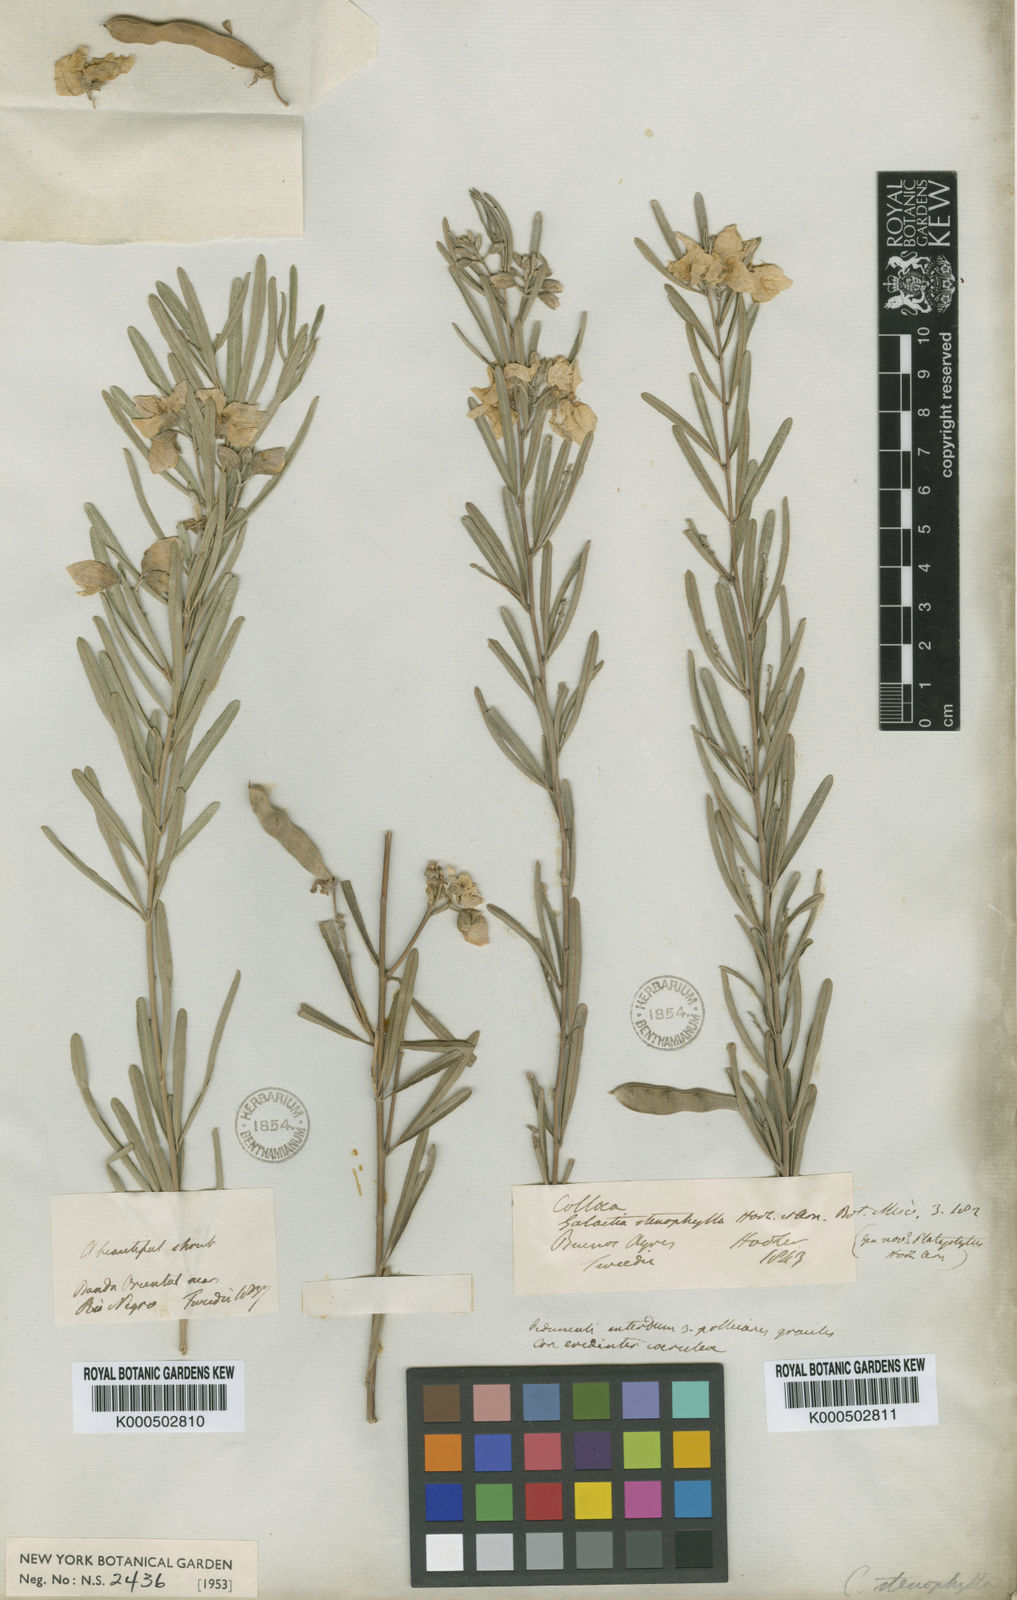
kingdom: Plantae
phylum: Tracheophyta
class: Magnoliopsida
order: Fabales
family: Fabaceae
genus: Collaea
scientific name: Collaea stenophylla
